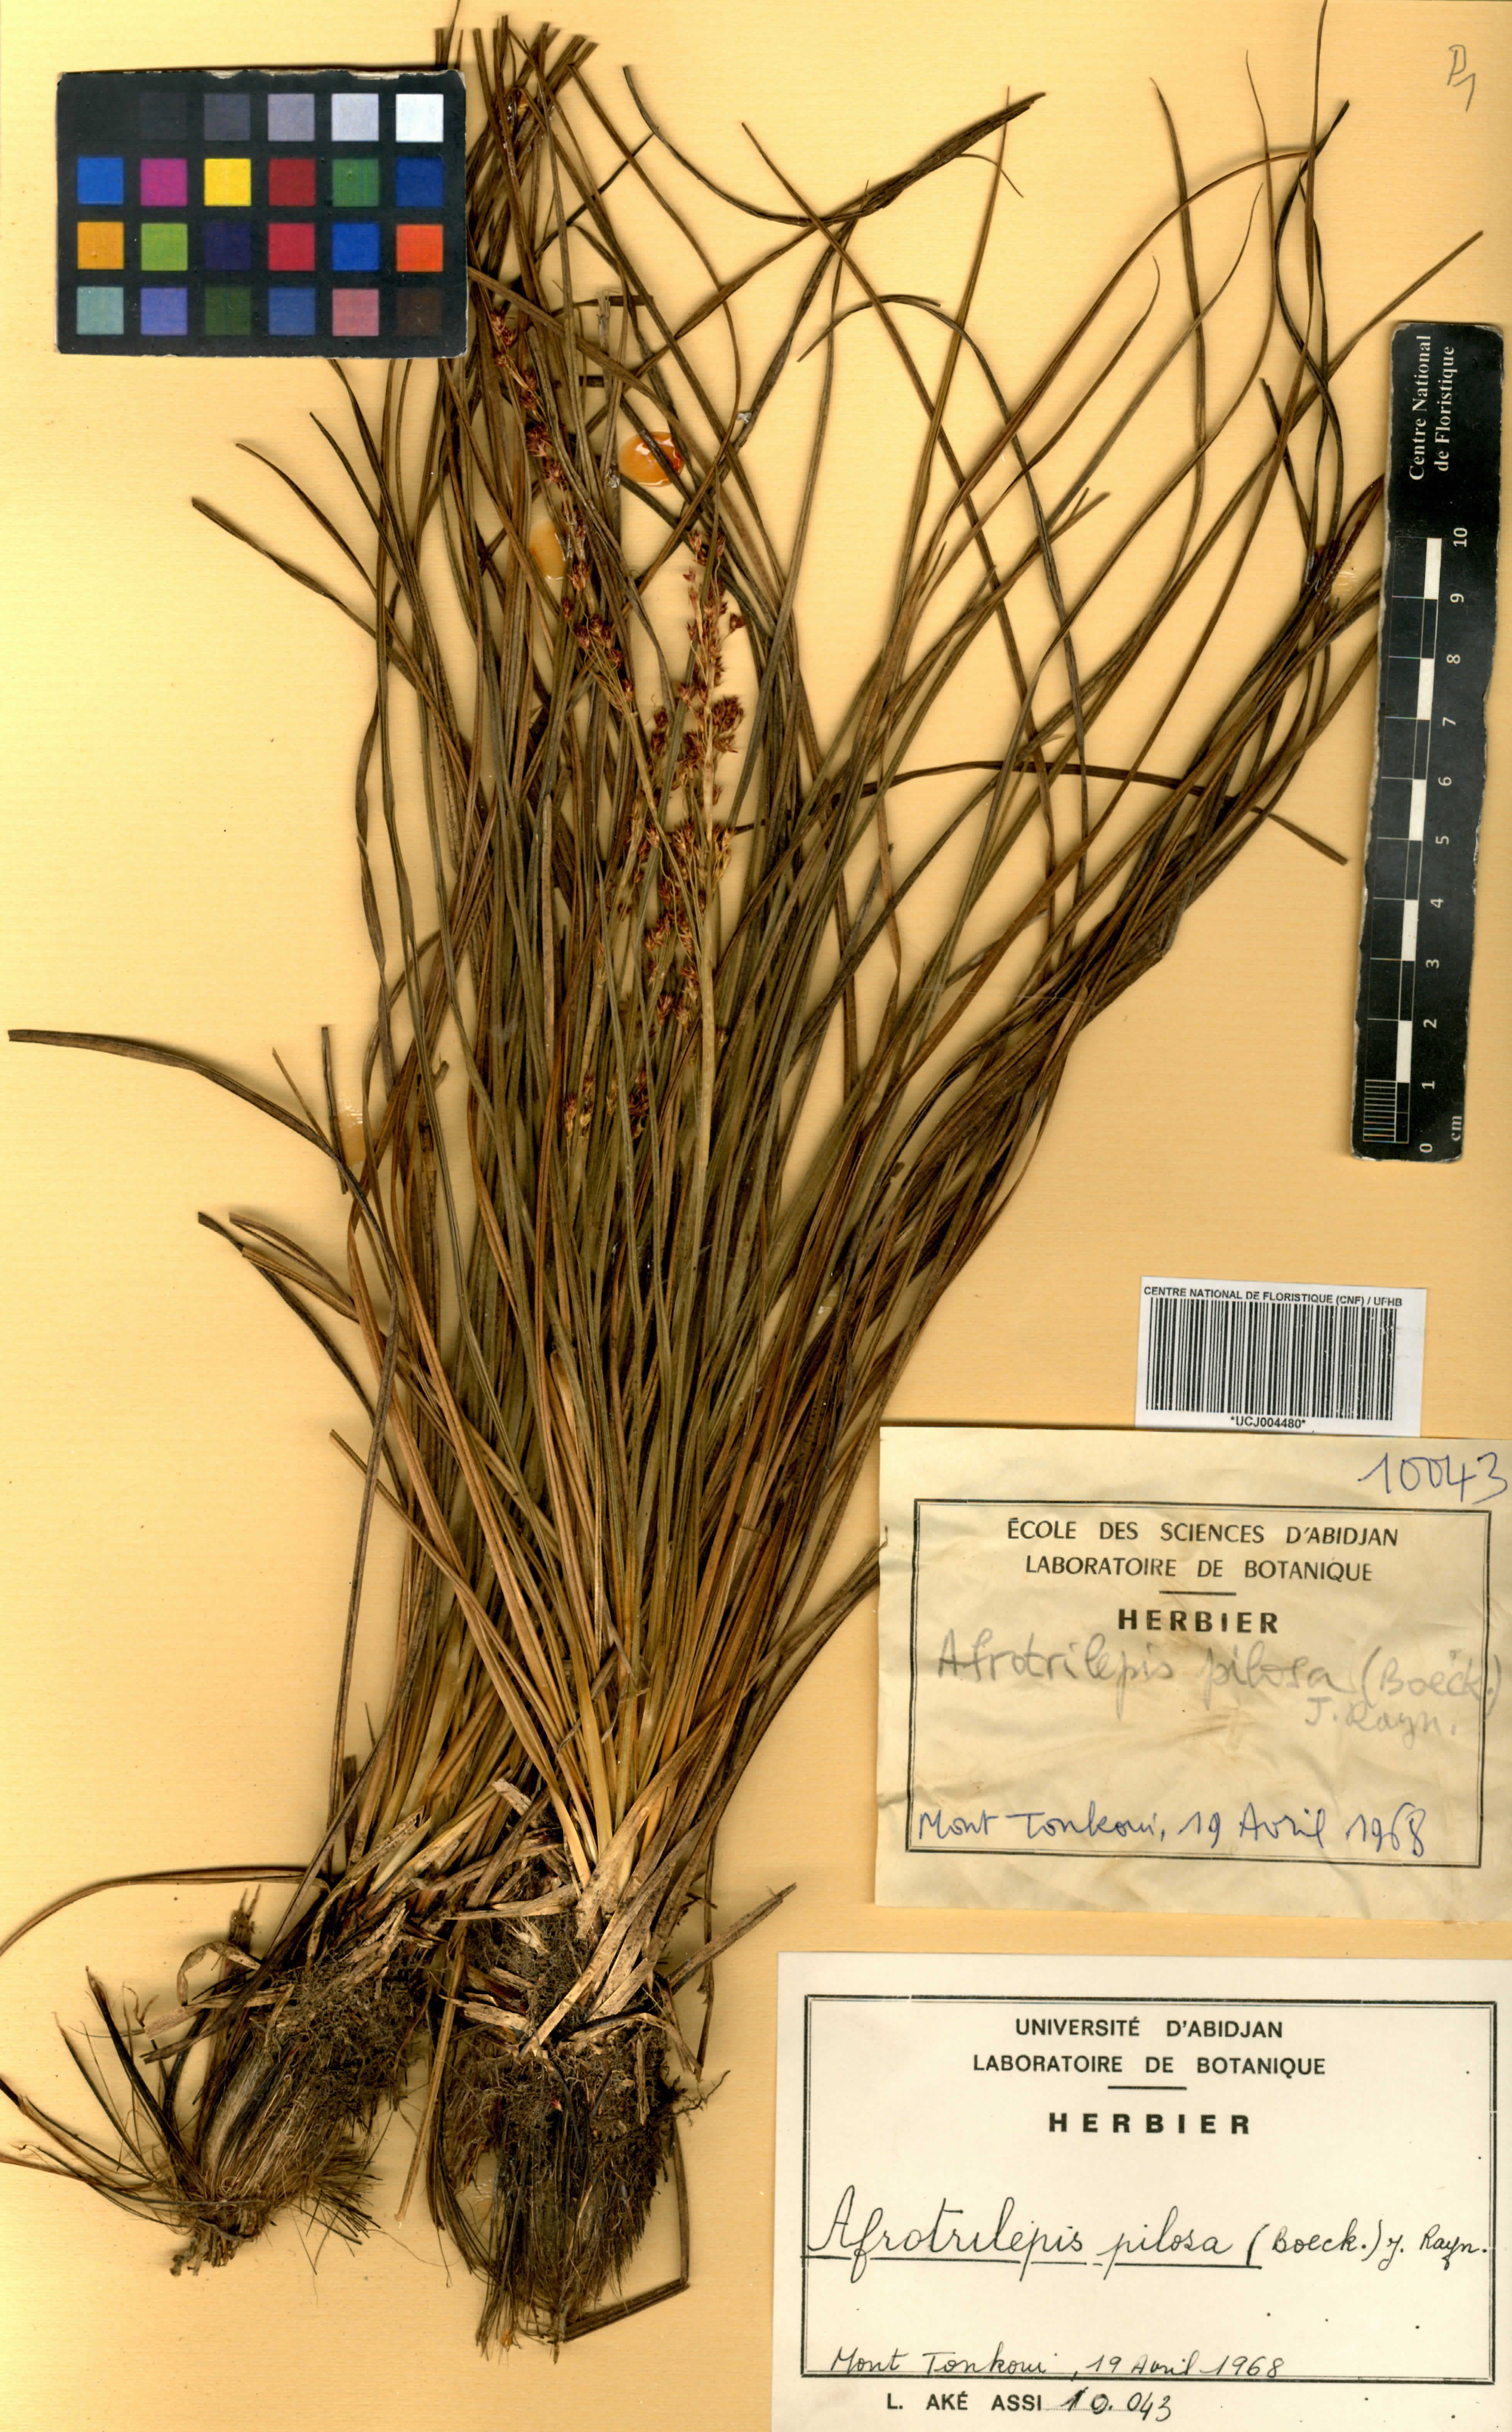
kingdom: Plantae
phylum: Tracheophyta
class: Liliopsida
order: Poales
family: Cyperaceae
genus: Afrotrilepis
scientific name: Afrotrilepis pilosa
